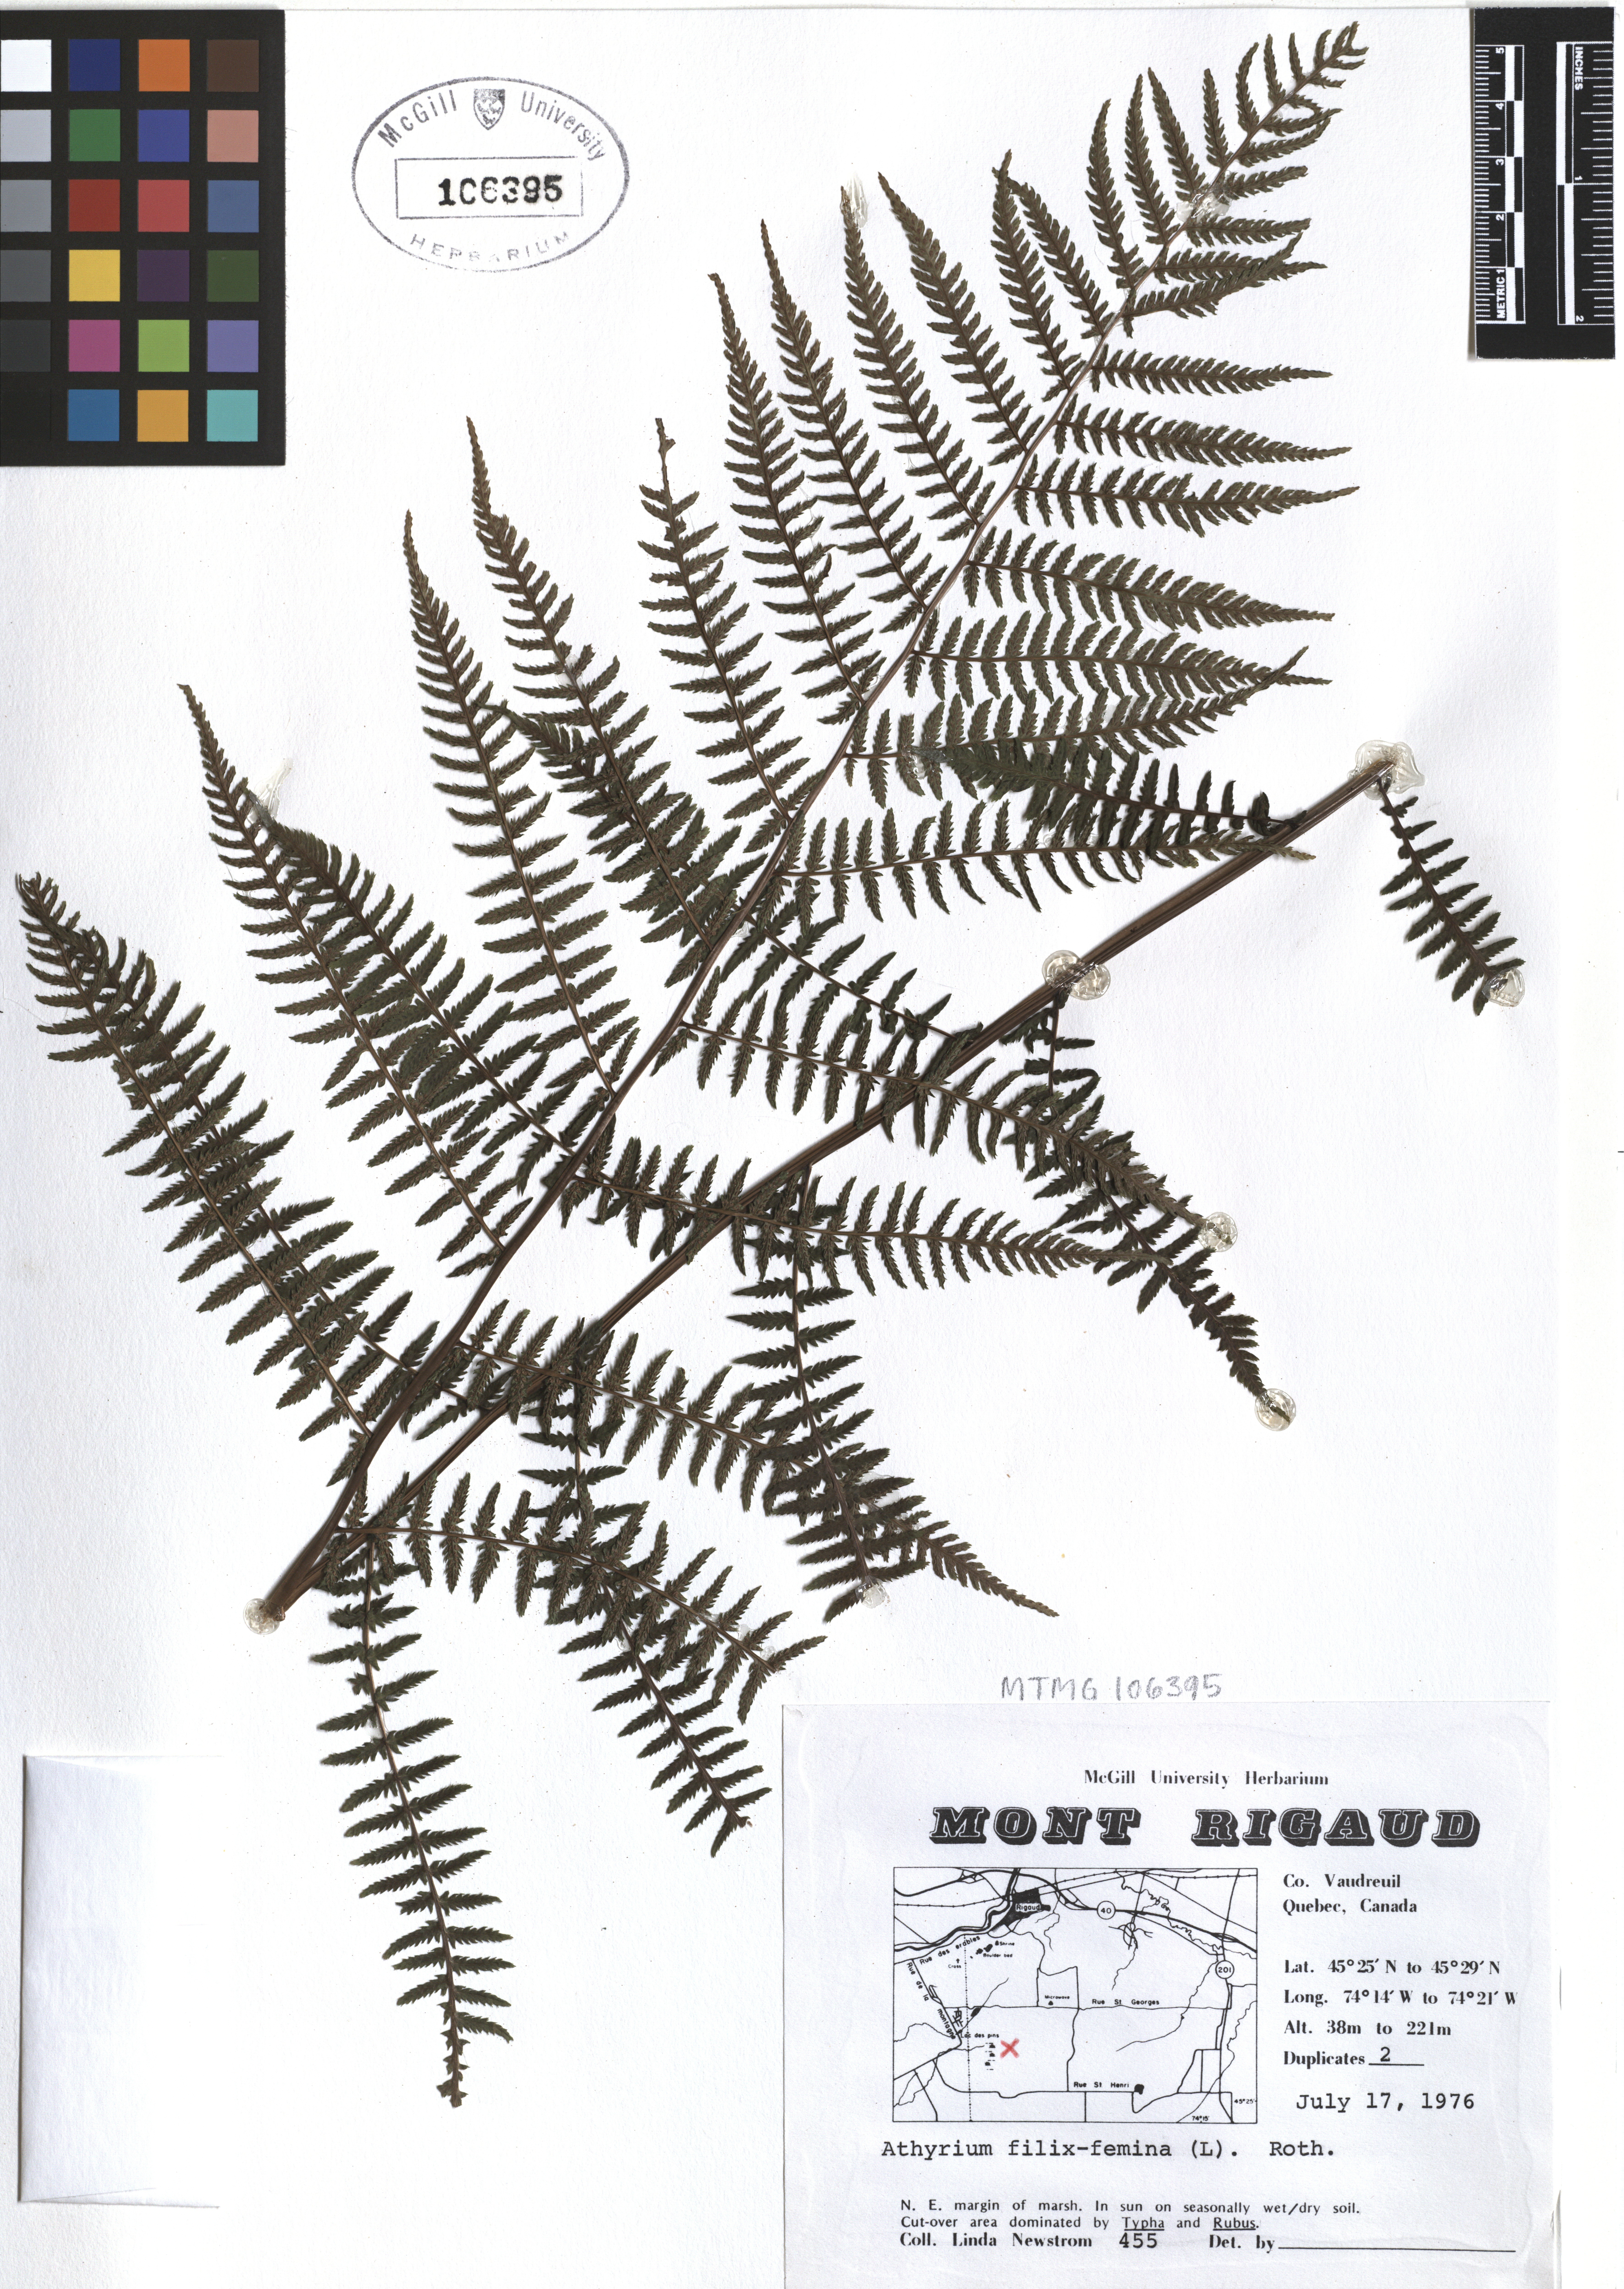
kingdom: Plantae
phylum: Tracheophyta
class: Polypodiopsida
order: Polypodiales
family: Athyriaceae
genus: Athyrium
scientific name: Athyrium filix-femina
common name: Lady fern
